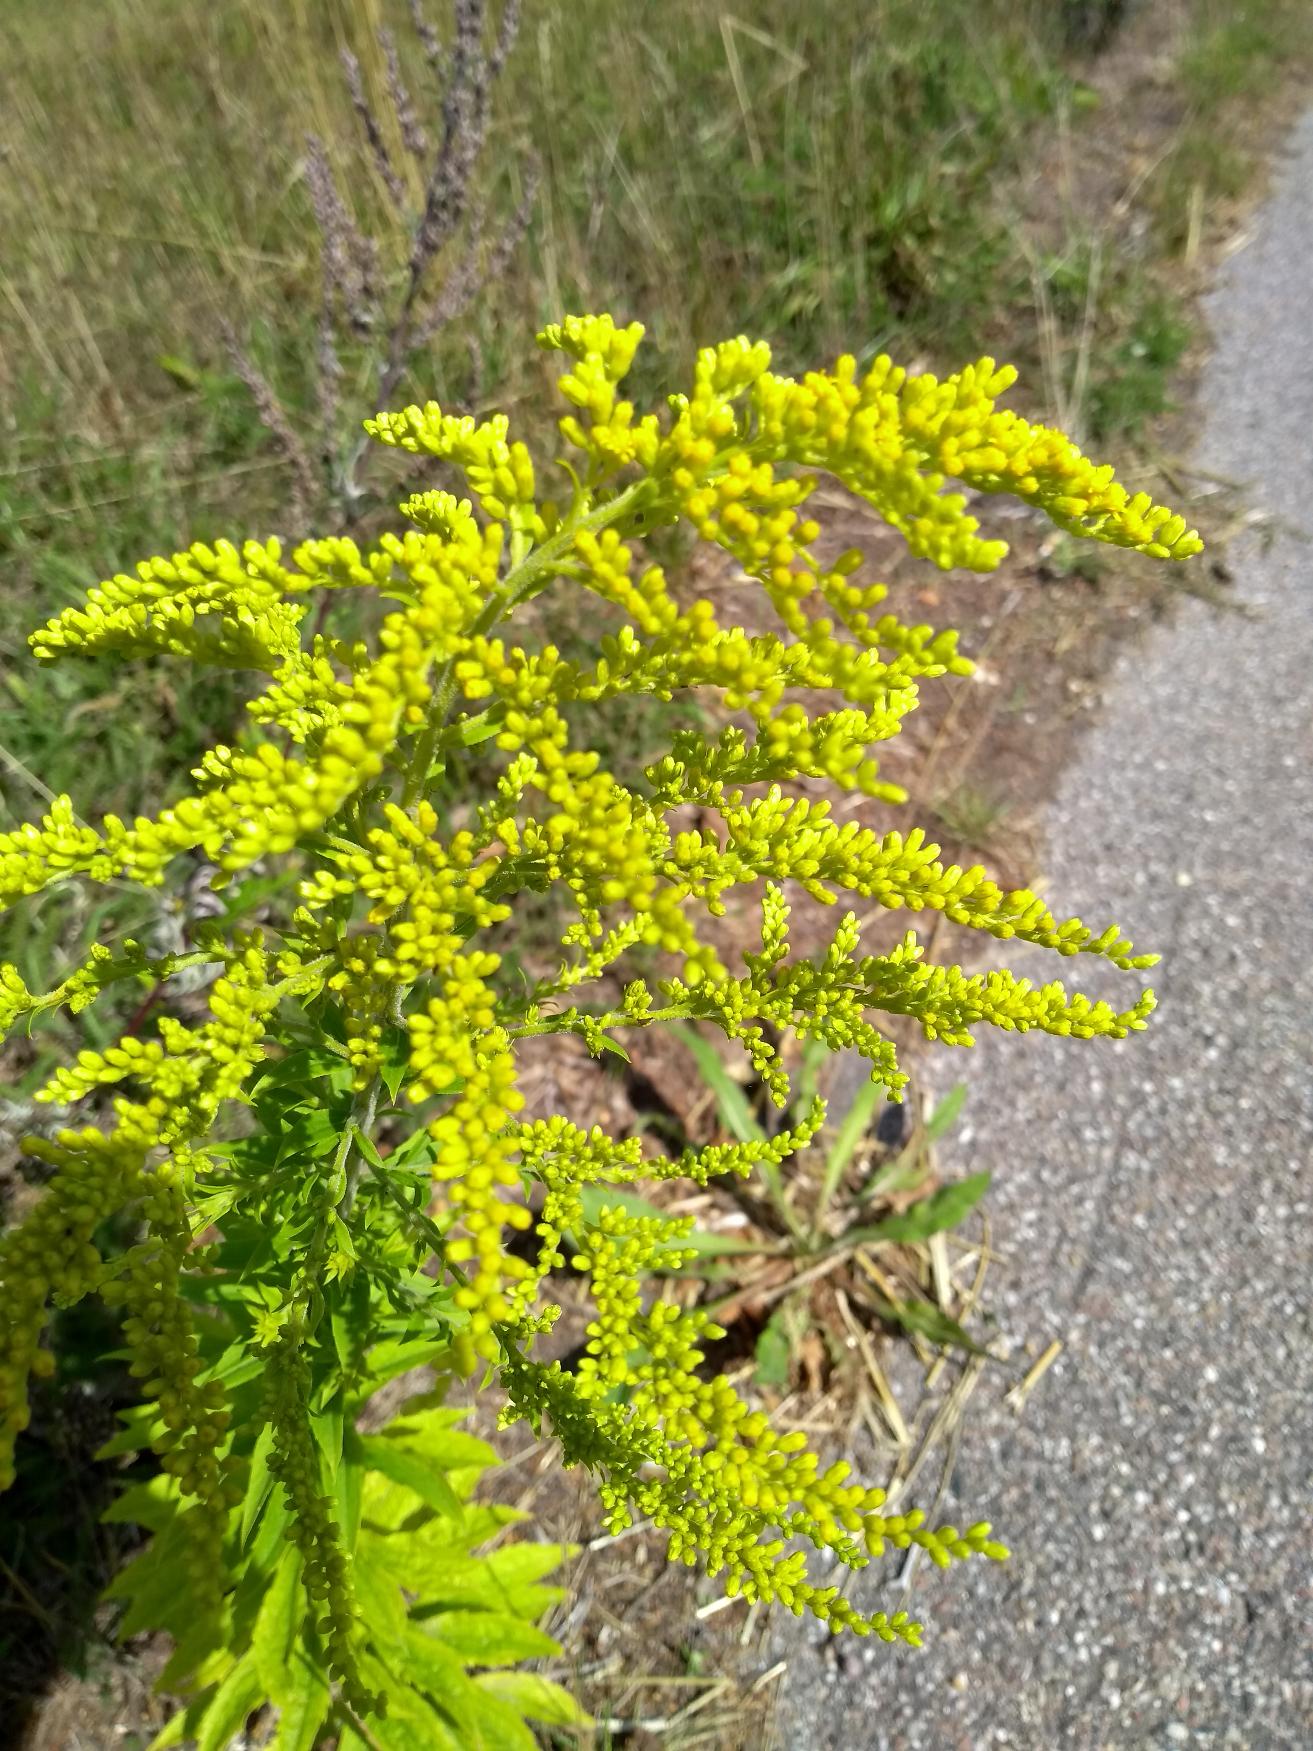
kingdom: Plantae
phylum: Tracheophyta
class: Magnoliopsida
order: Asterales
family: Asteraceae
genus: Solidago
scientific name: Solidago canadensis
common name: Kanadisk gyldenris
